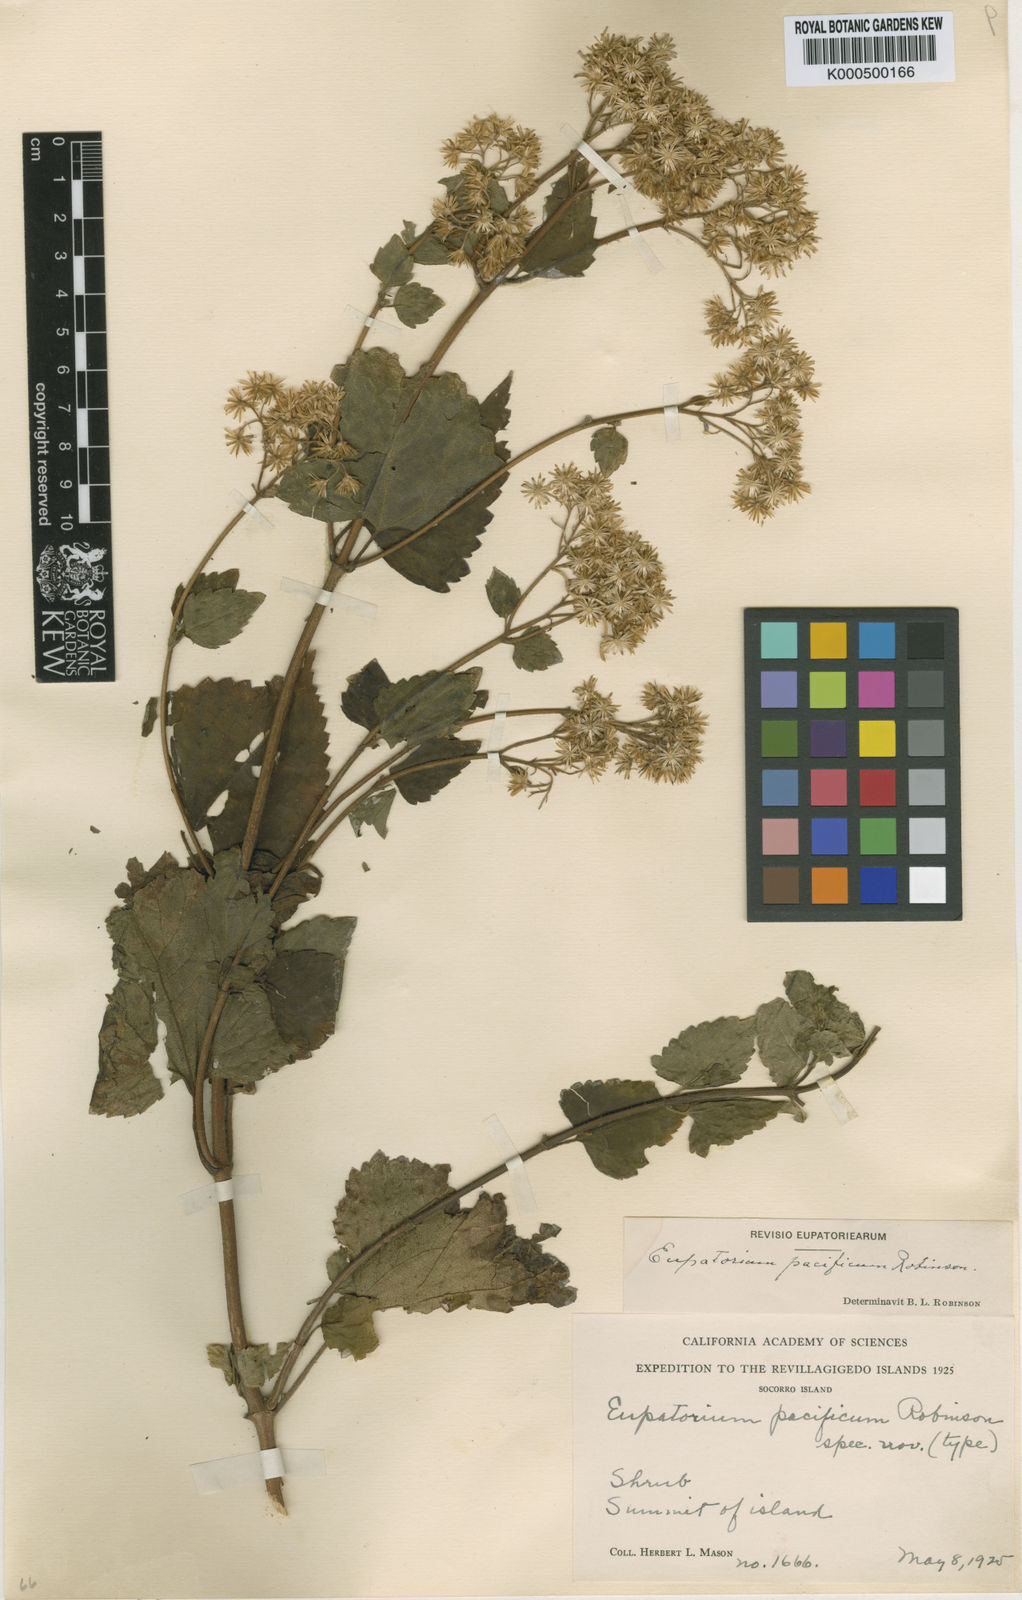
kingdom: Plantae
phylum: Tracheophyta
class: Magnoliopsida
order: Asterales
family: Asteraceae
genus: Ageratina
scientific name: Ageratina pichinchensis
